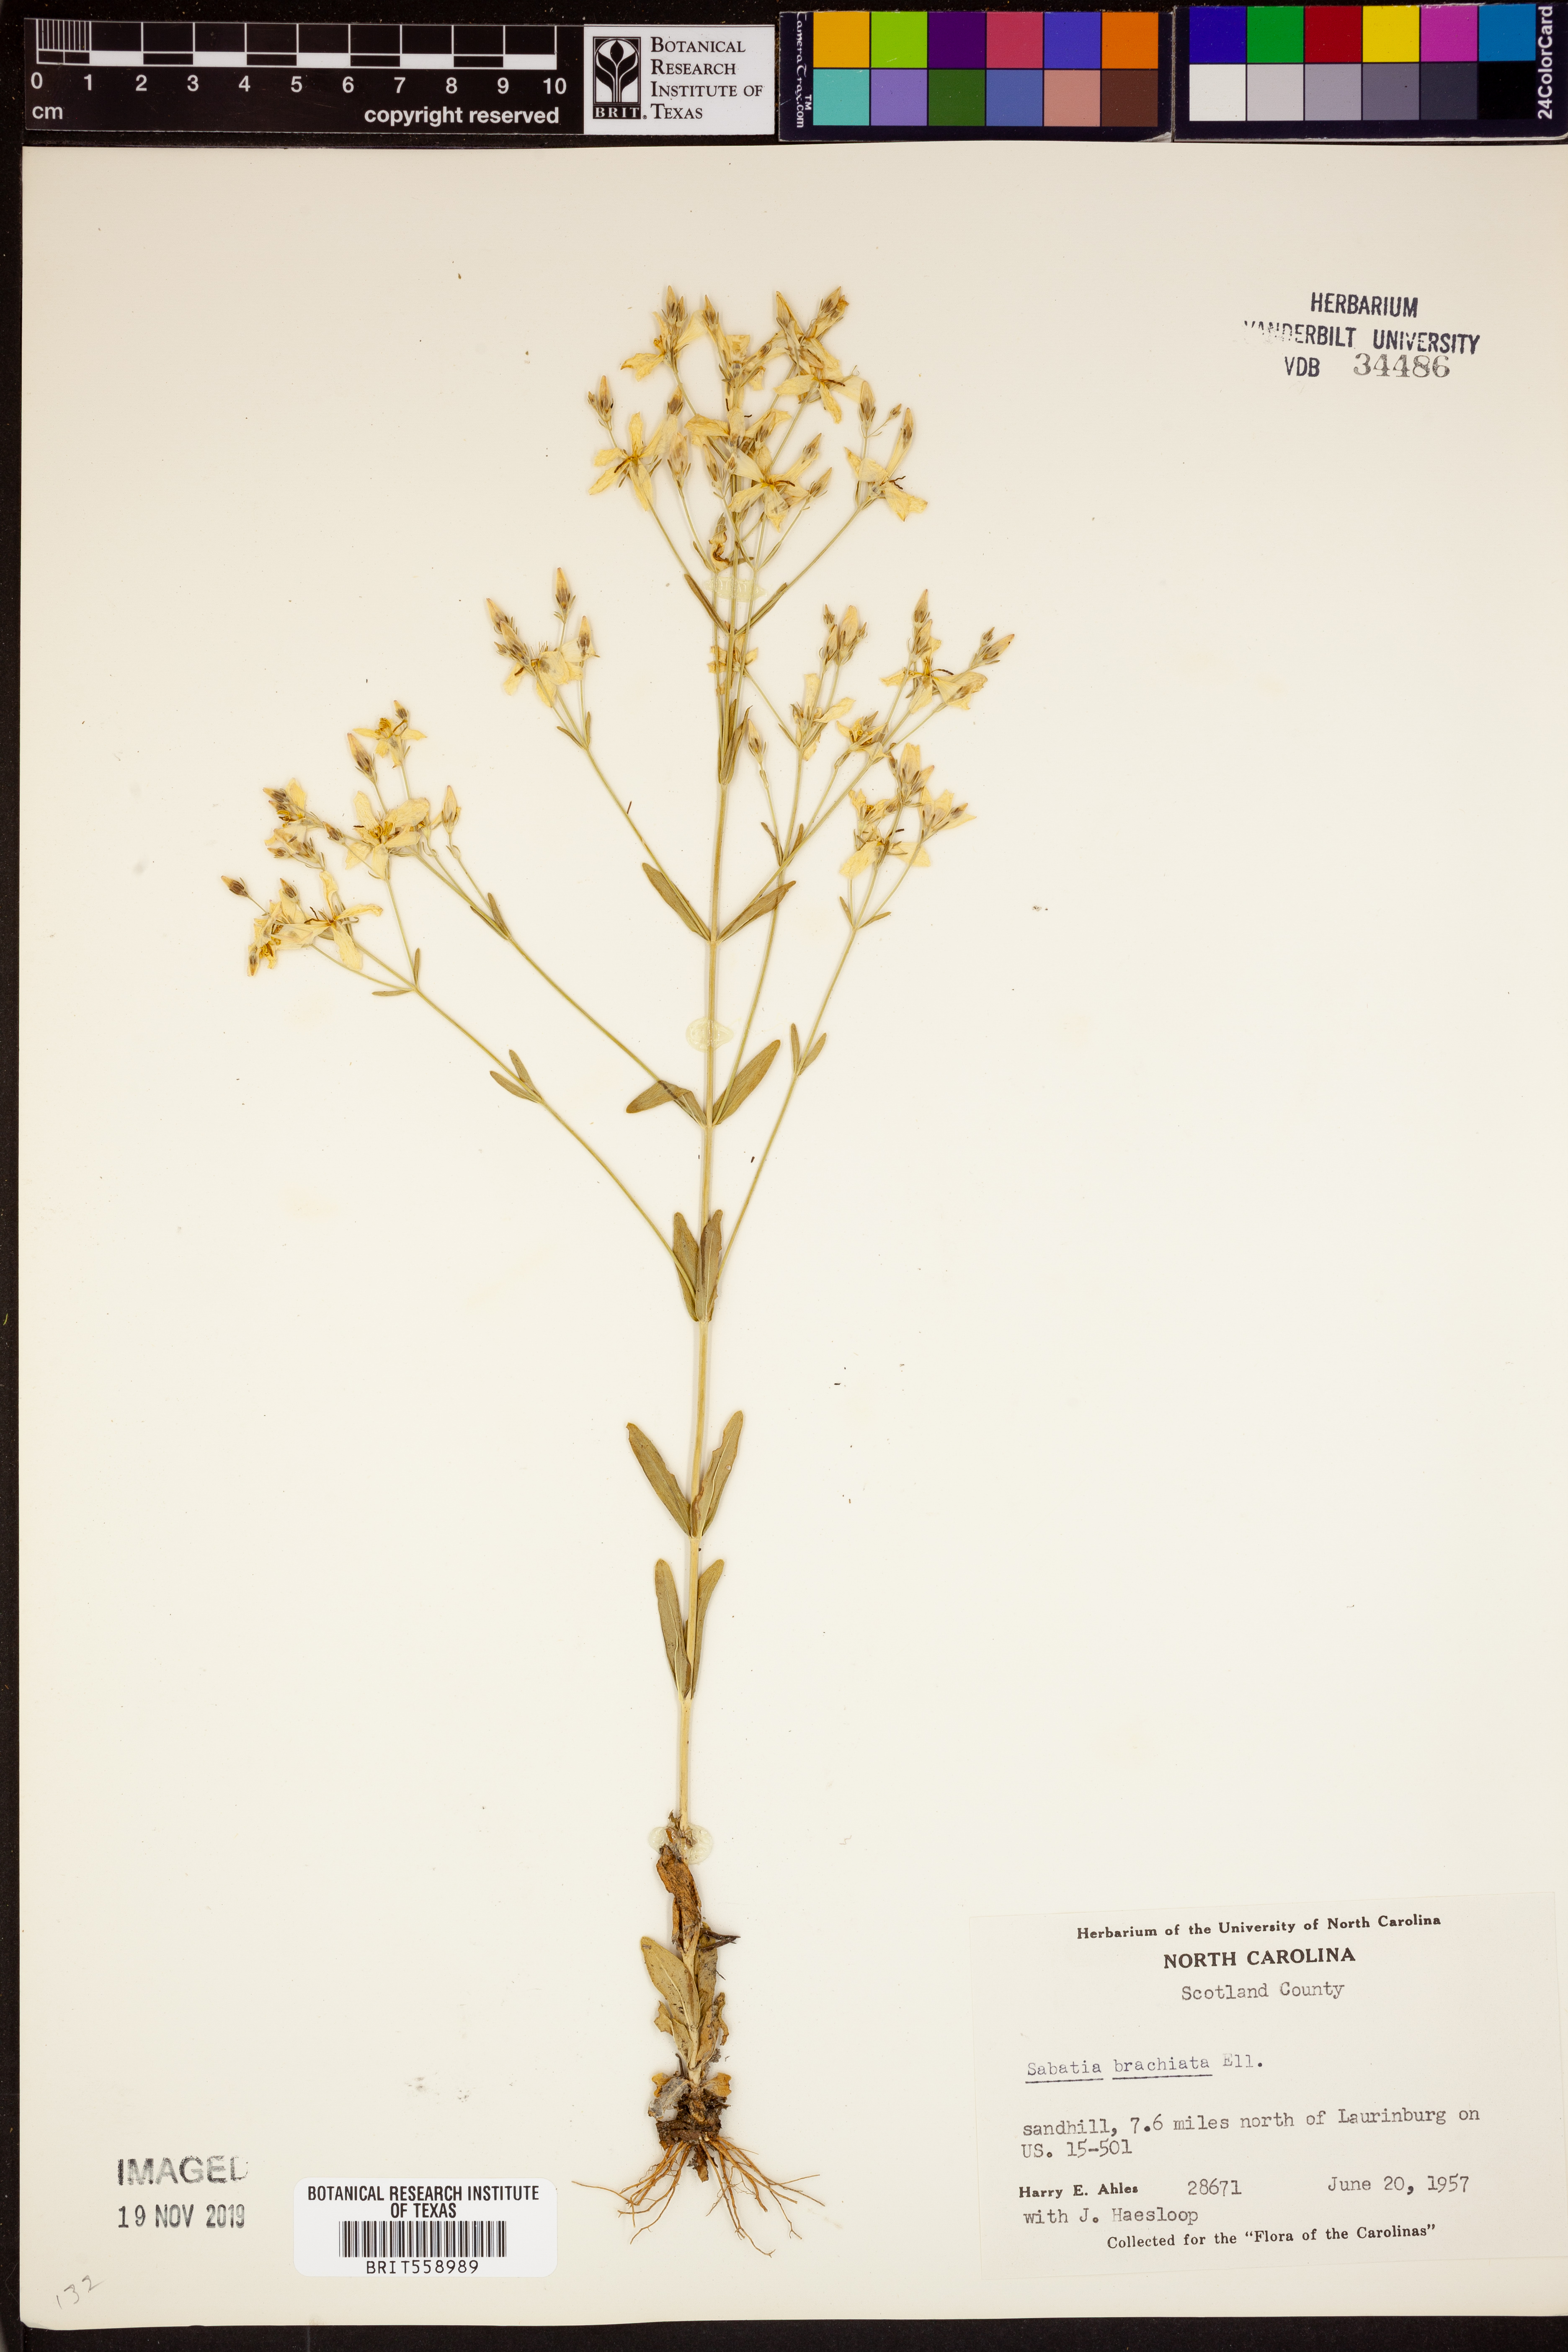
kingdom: Plantae
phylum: Tracheophyta
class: Magnoliopsida
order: Gentianales
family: Gentianaceae
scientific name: Gentianaceae
